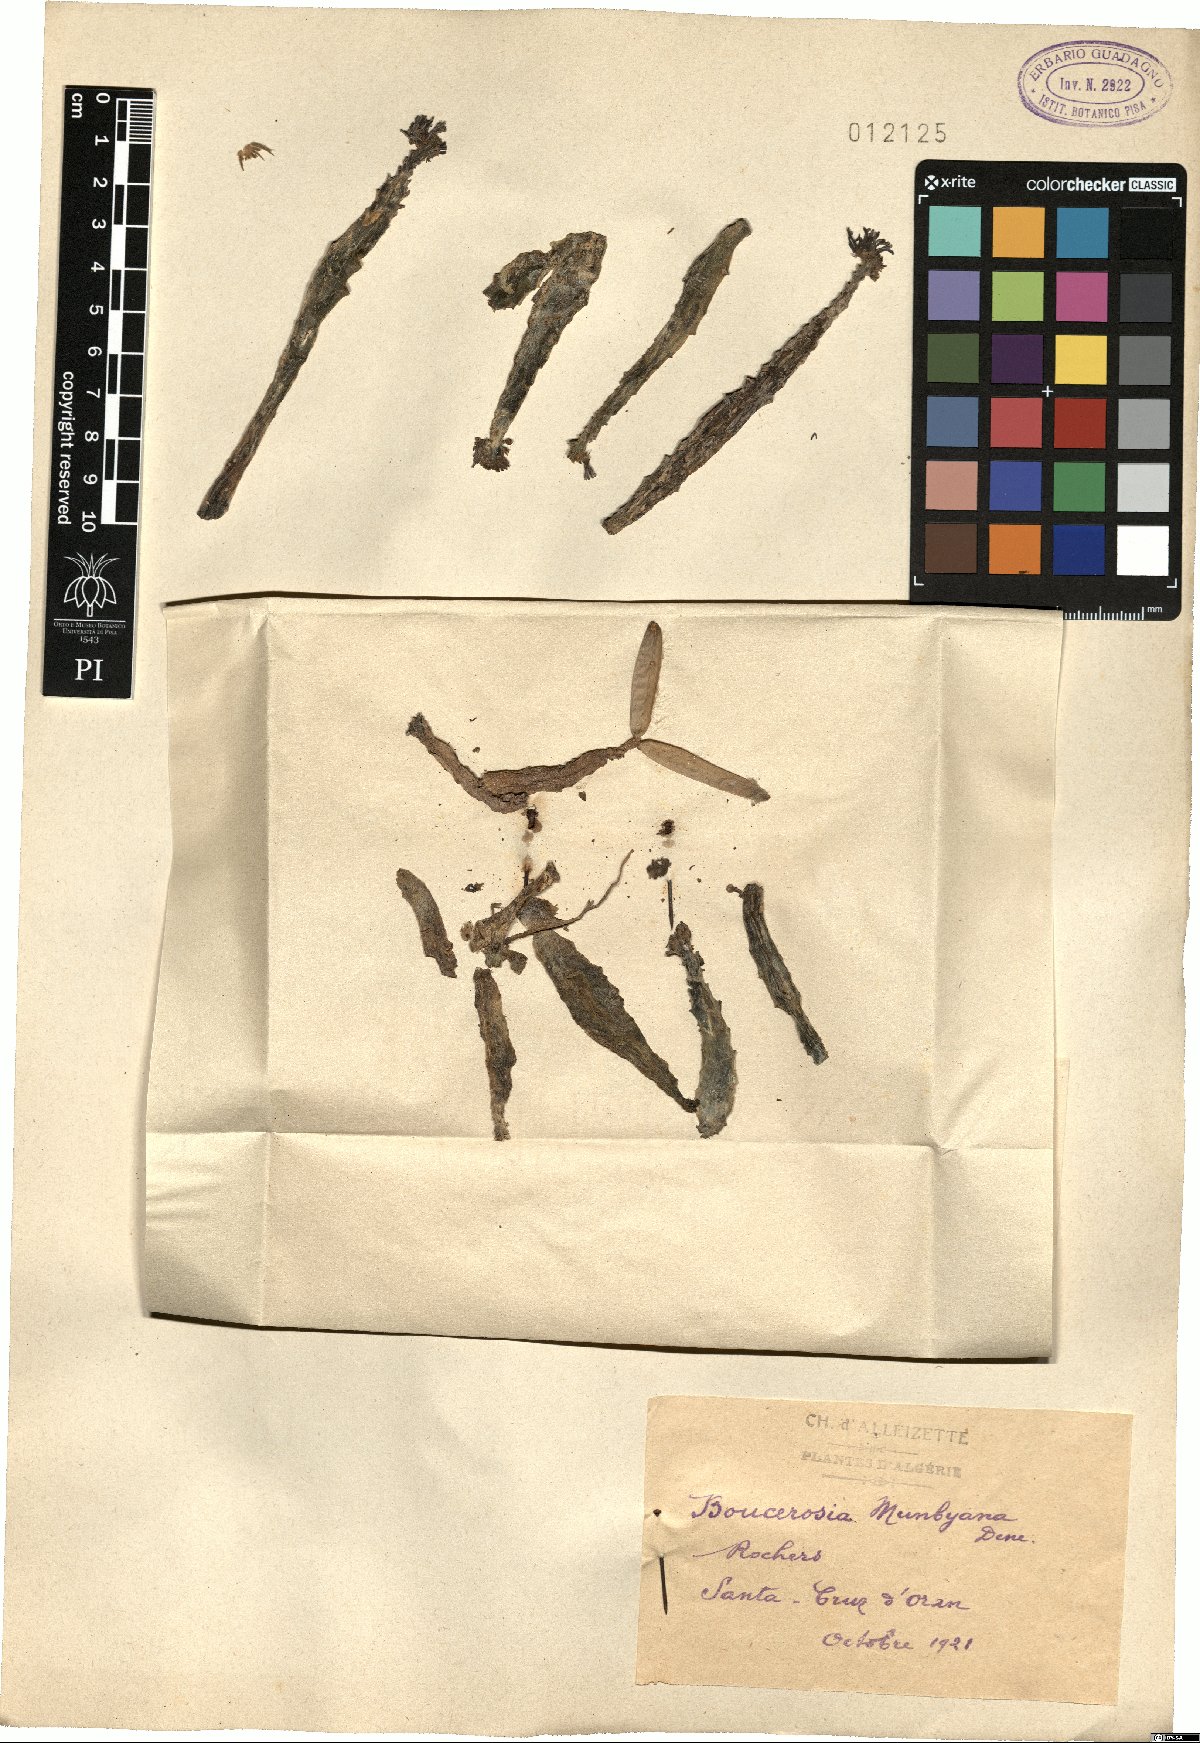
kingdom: Plantae
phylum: Tracheophyta
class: Magnoliopsida
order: Gentianales
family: Apocynaceae
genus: Ceropegia
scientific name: Ceropegia munbyana
